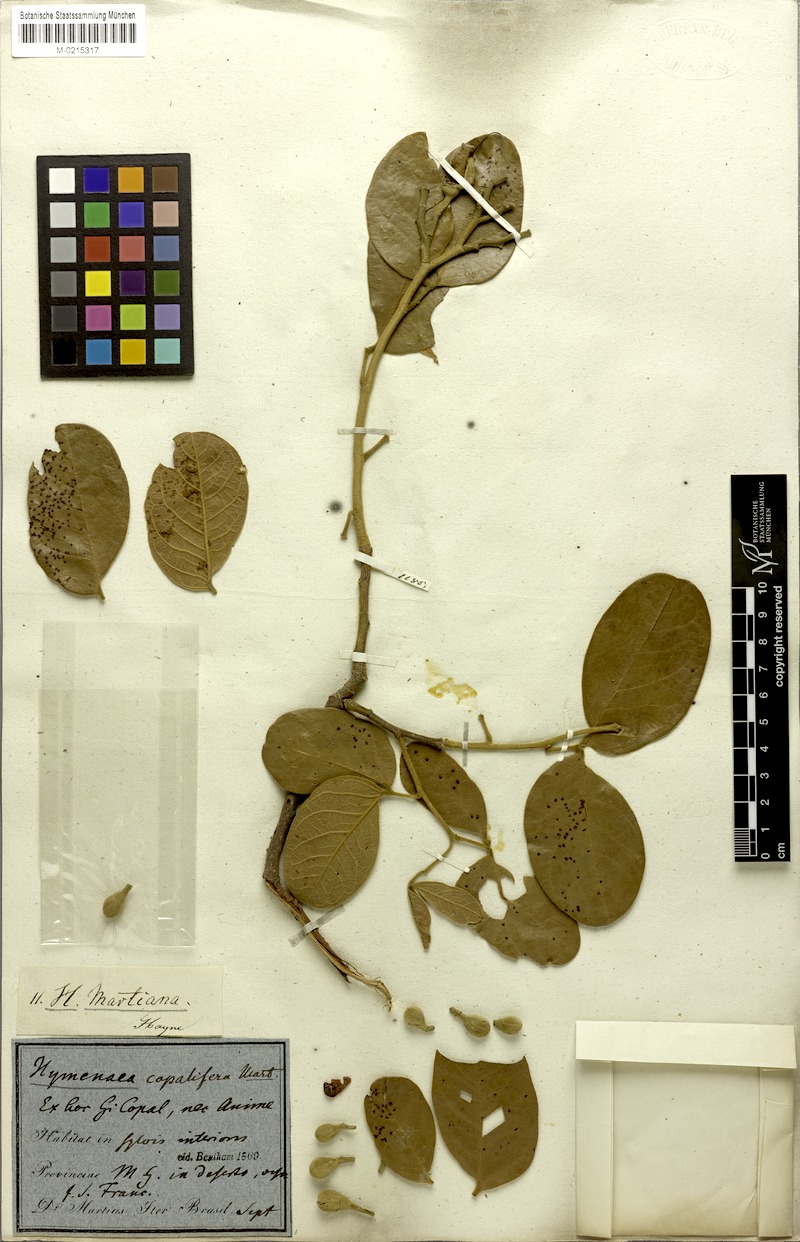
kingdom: Plantae
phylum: Tracheophyta
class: Magnoliopsida
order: Fabales
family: Fabaceae
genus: Hymenaea
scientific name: Hymenaea martiana
